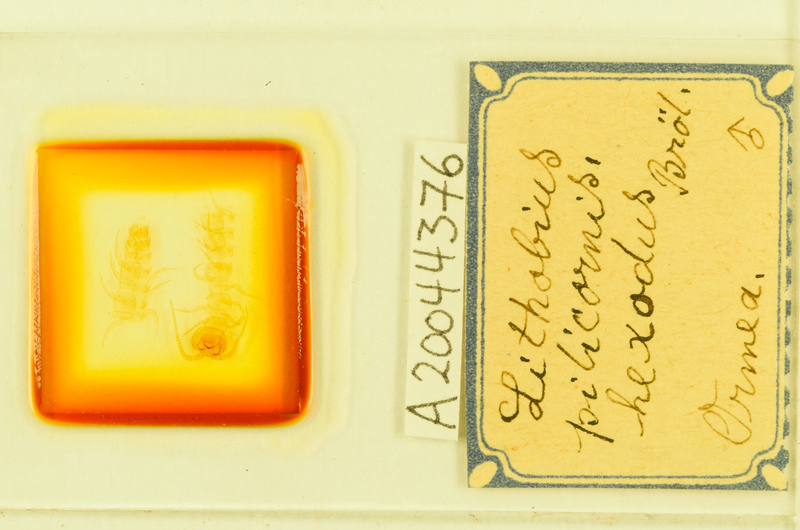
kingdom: Animalia
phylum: Arthropoda
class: Chilopoda
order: Lithobiomorpha
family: Lithobiidae
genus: Lithobius
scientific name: Lithobius pilicornis
